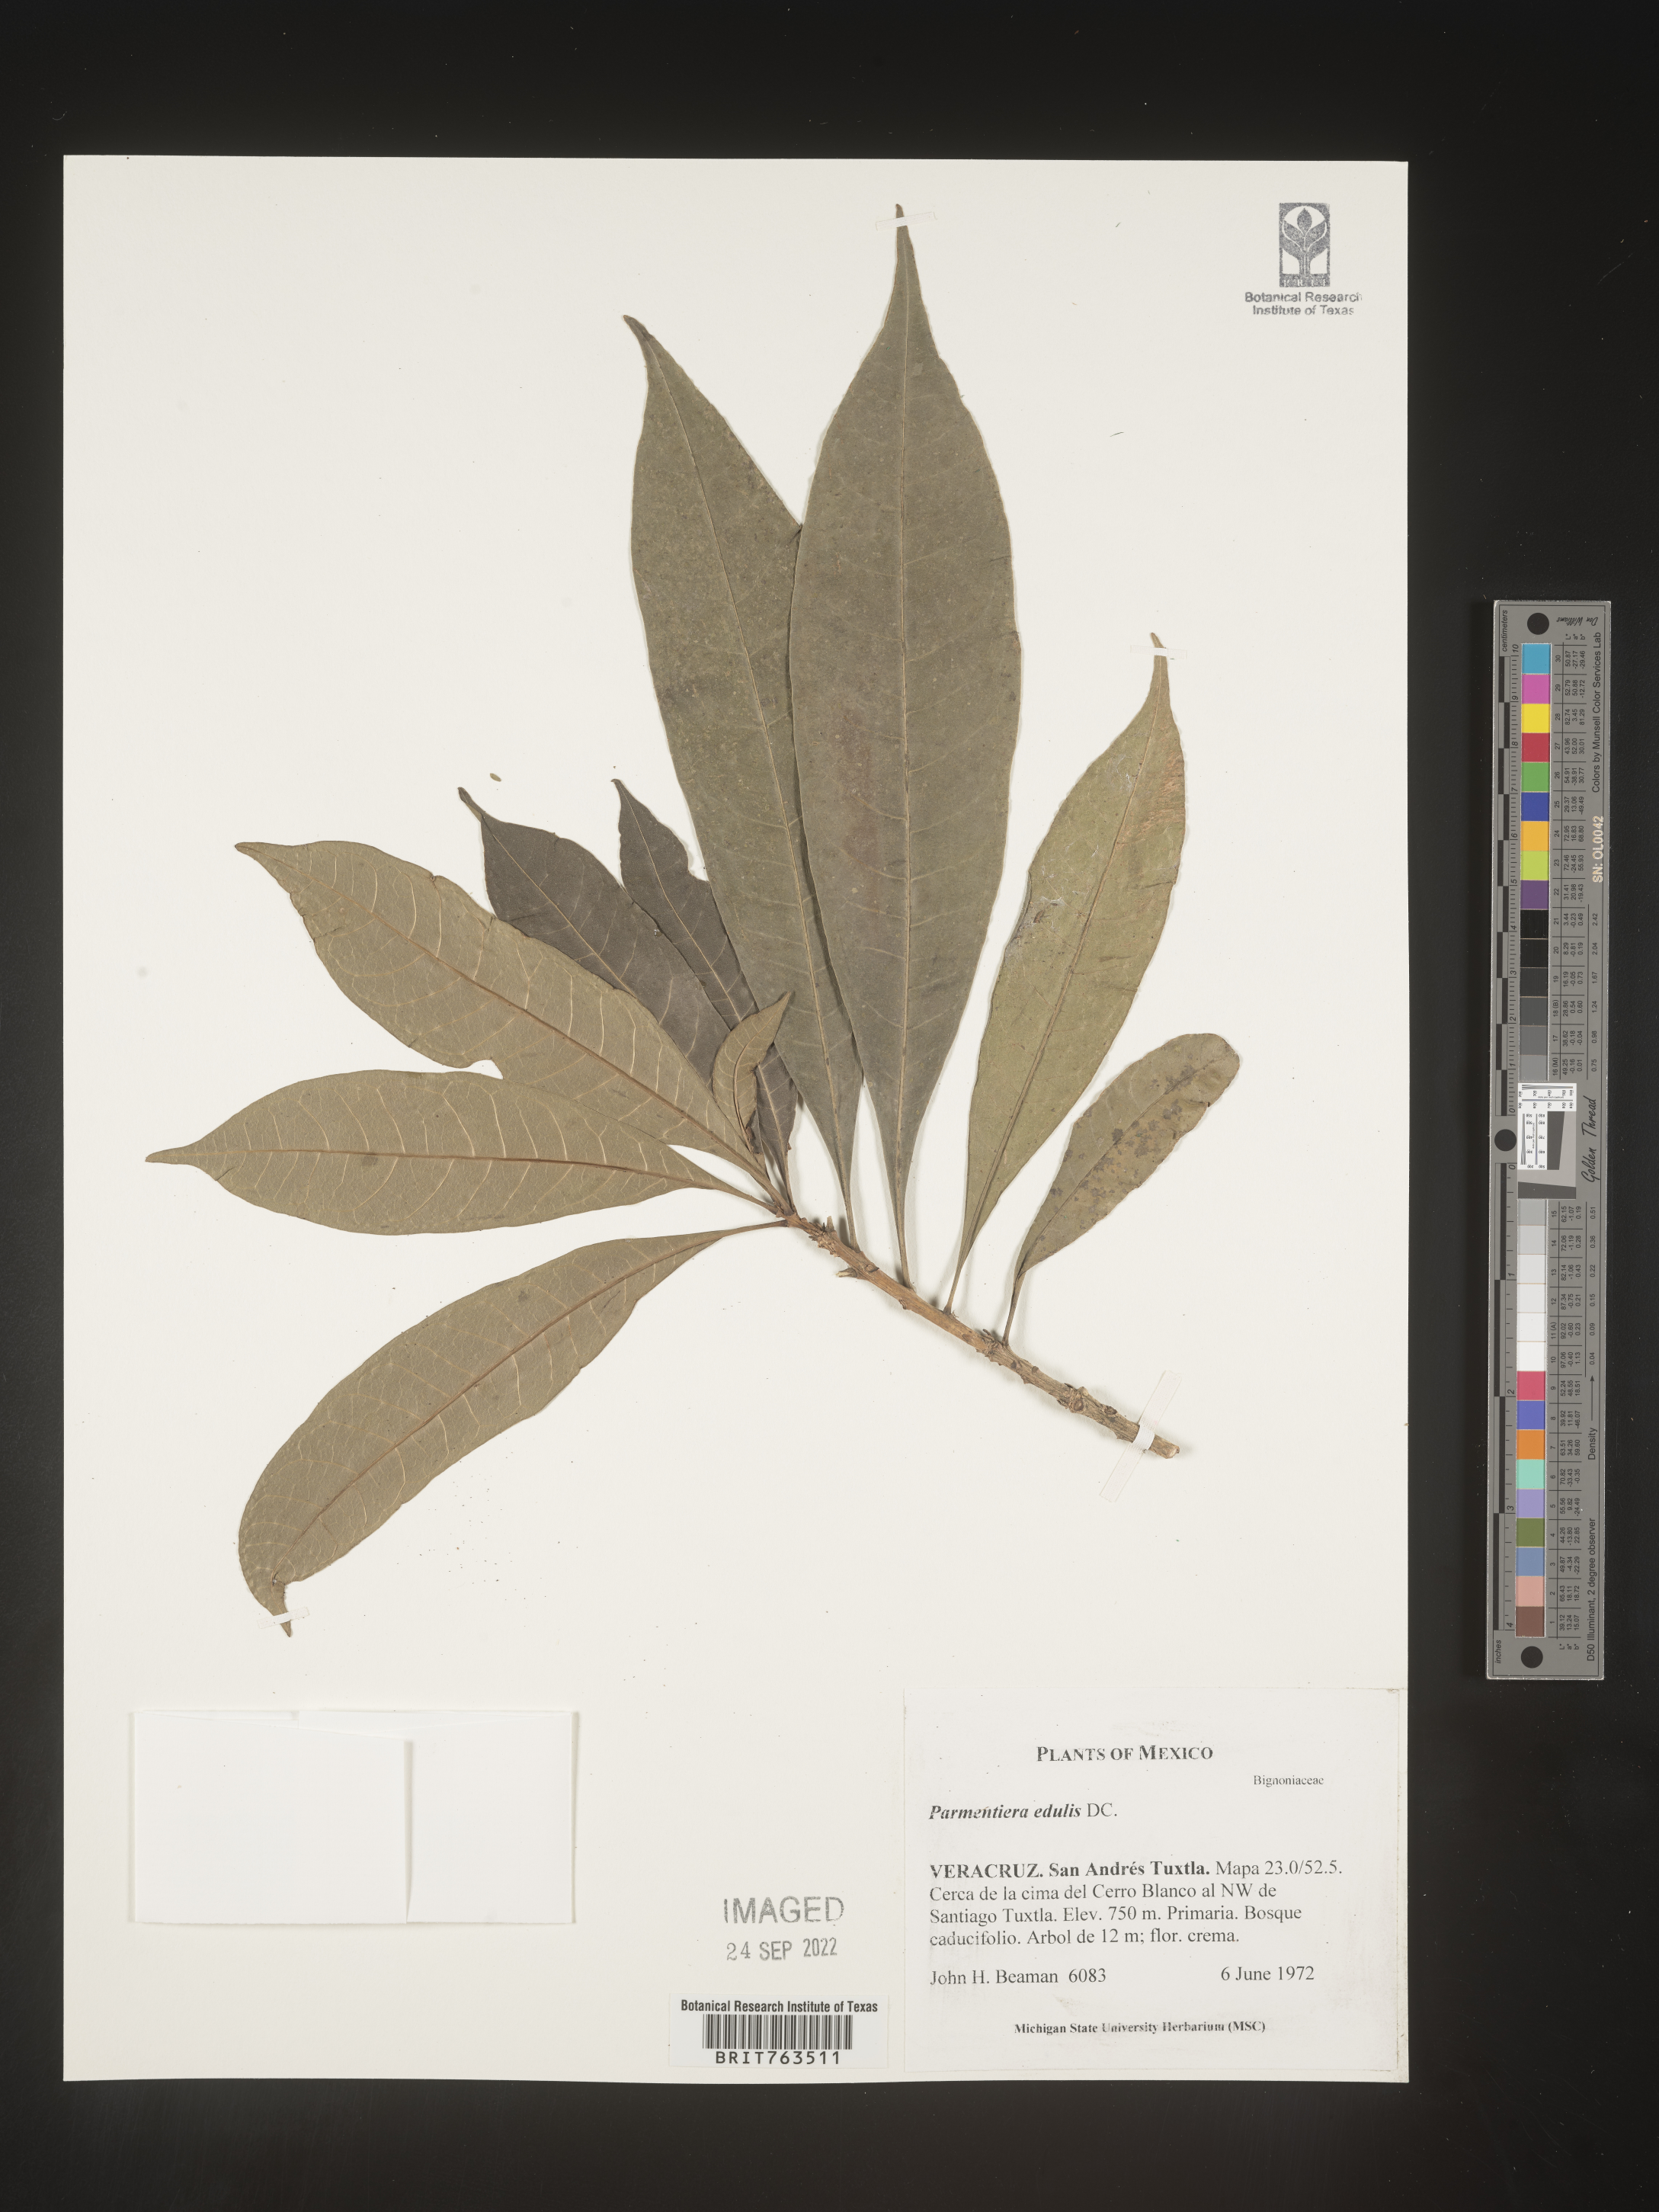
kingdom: Plantae
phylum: Tracheophyta
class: Magnoliopsida
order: Lamiales
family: Bignoniaceae
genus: Parmentiera
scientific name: Parmentiera
